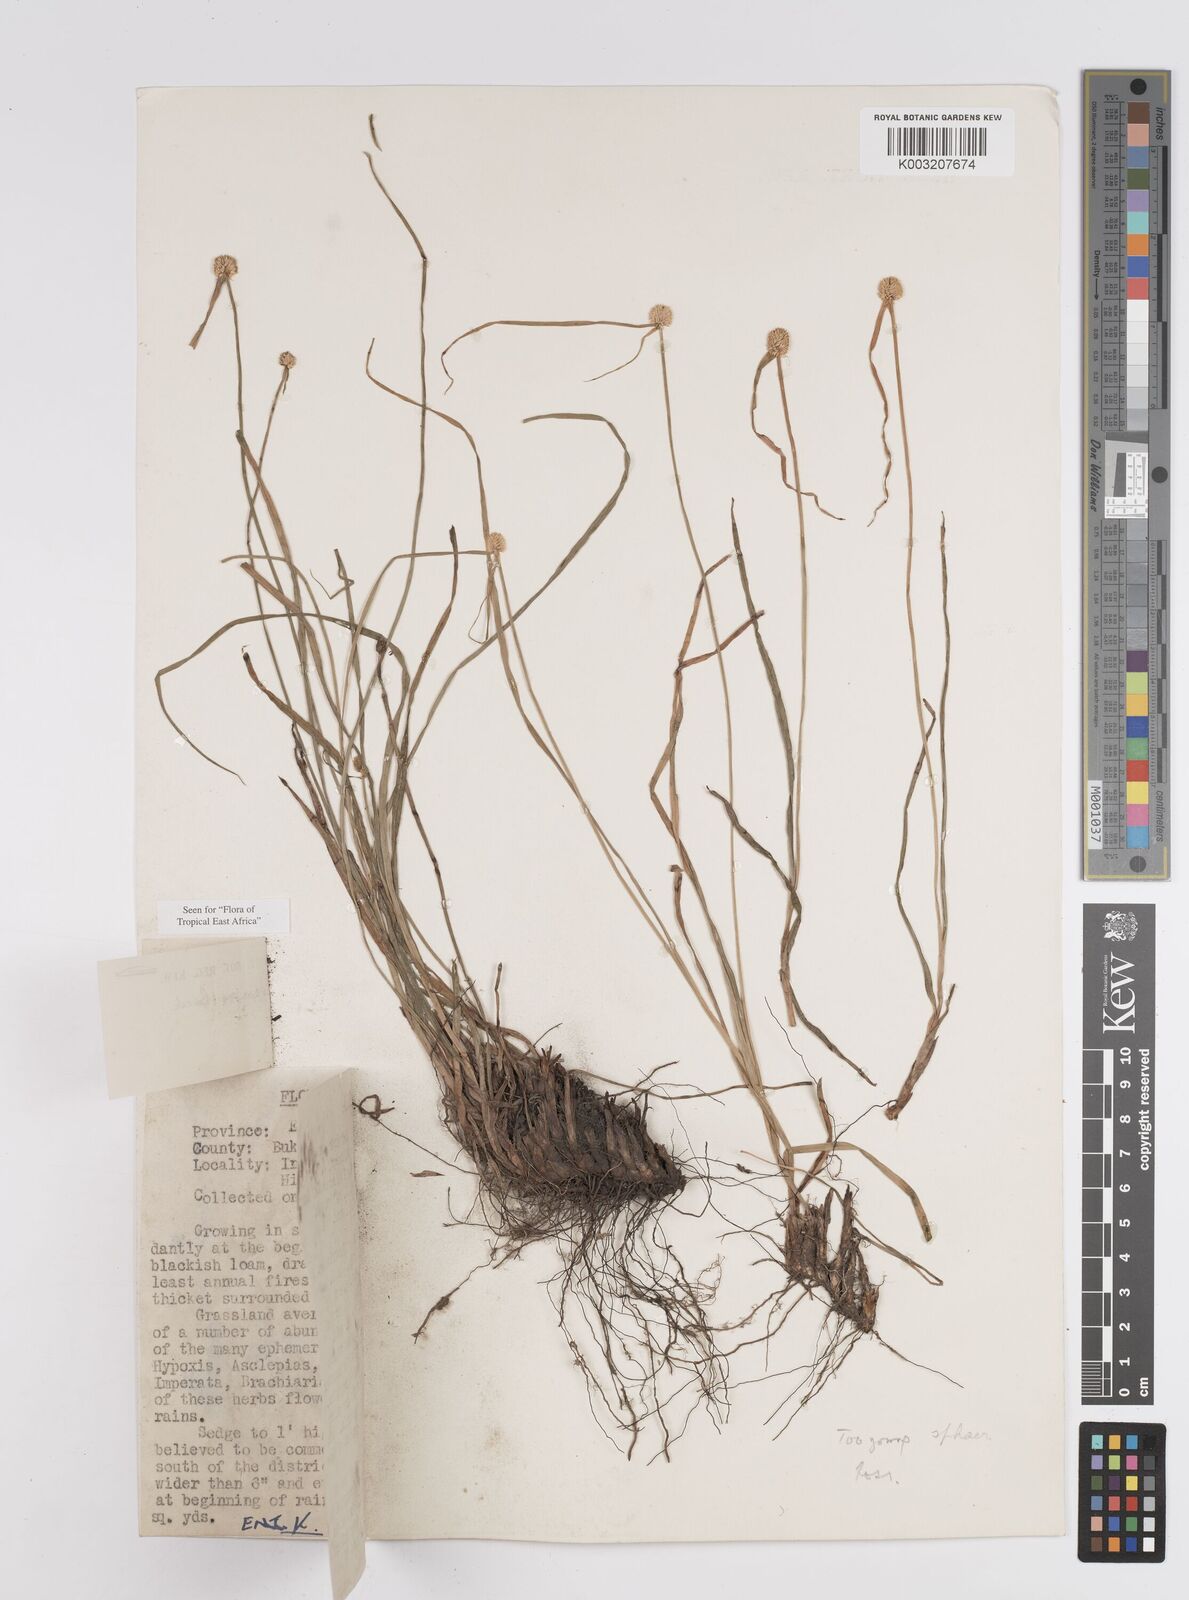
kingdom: Plantae
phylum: Tracheophyta
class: Liliopsida
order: Poales
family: Cyperaceae
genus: Cyperus
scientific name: Cyperus crassipes
